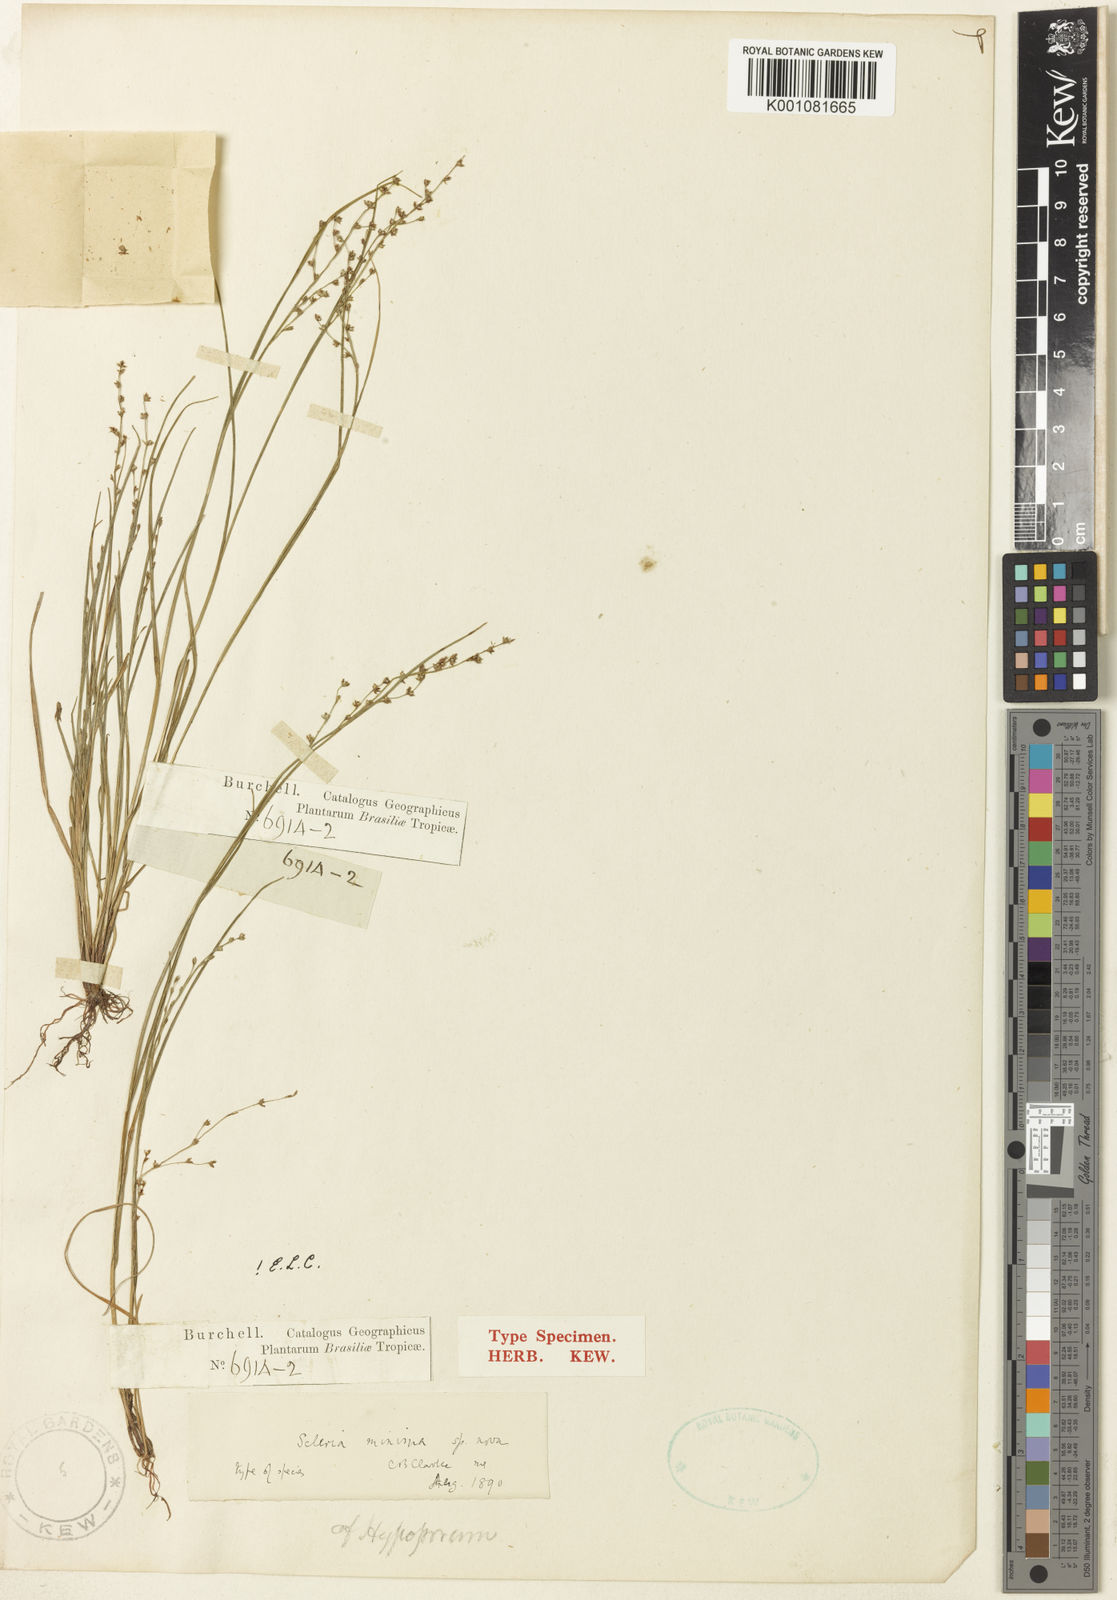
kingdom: Plantae
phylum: Tracheophyta
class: Liliopsida
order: Poales
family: Cyperaceae
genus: Scleria
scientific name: Scleria pusilla
